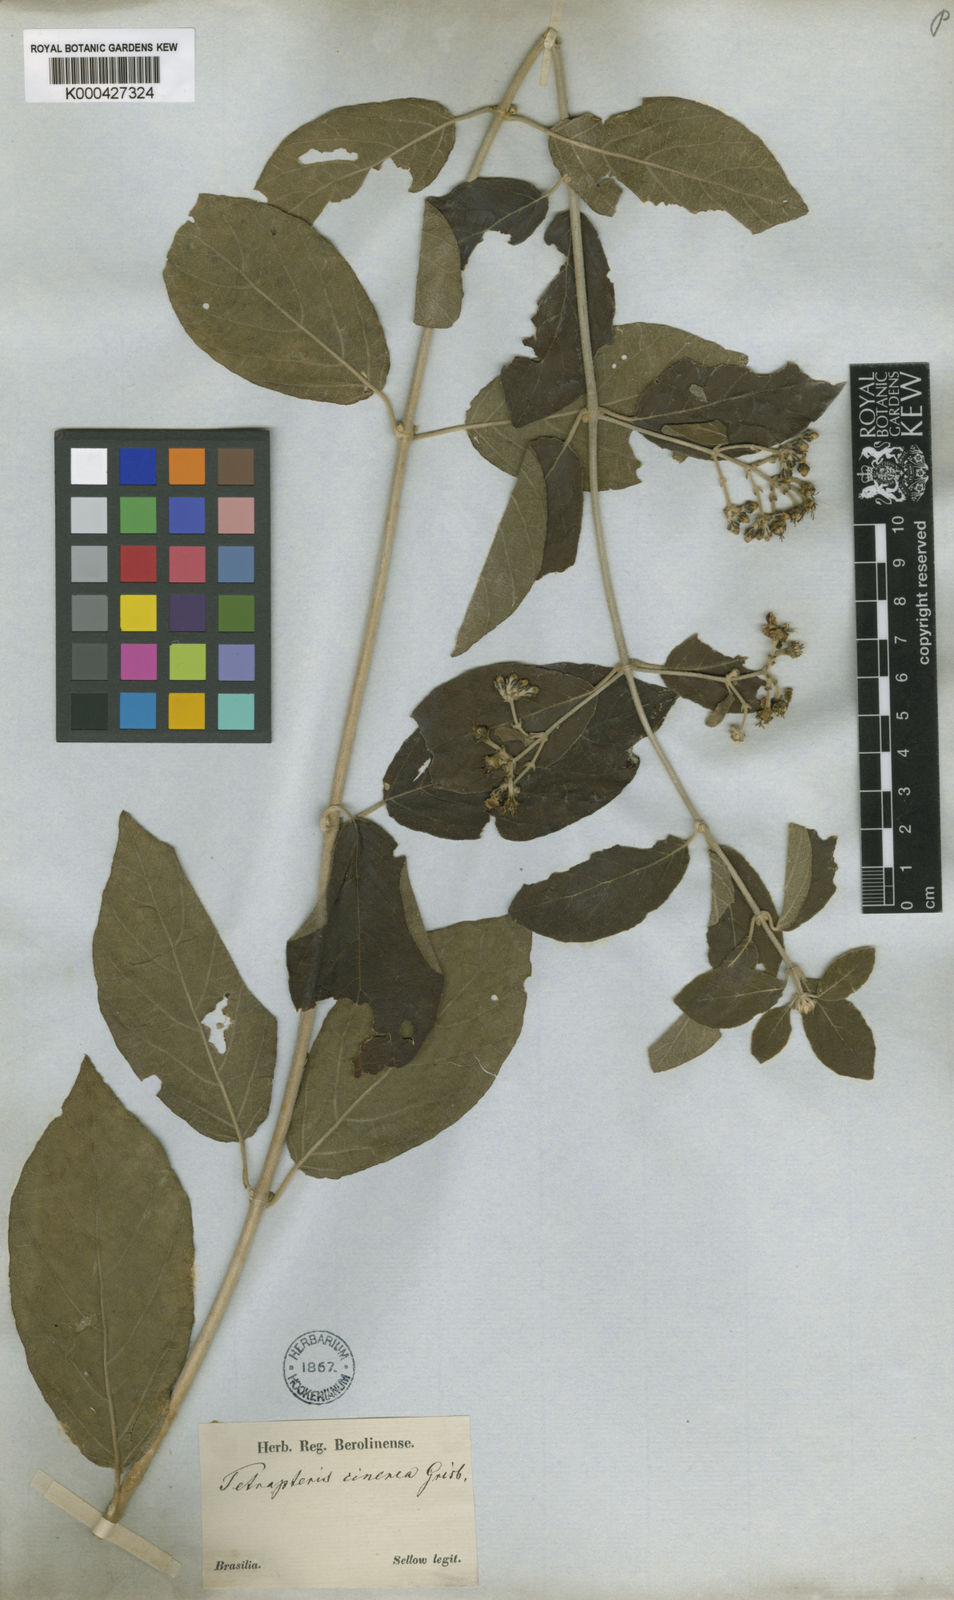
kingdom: Plantae
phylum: Tracheophyta
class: Magnoliopsida
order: Malpighiales
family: Malpighiaceae
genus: Tetrapterys
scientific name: Tetrapterys mollis
